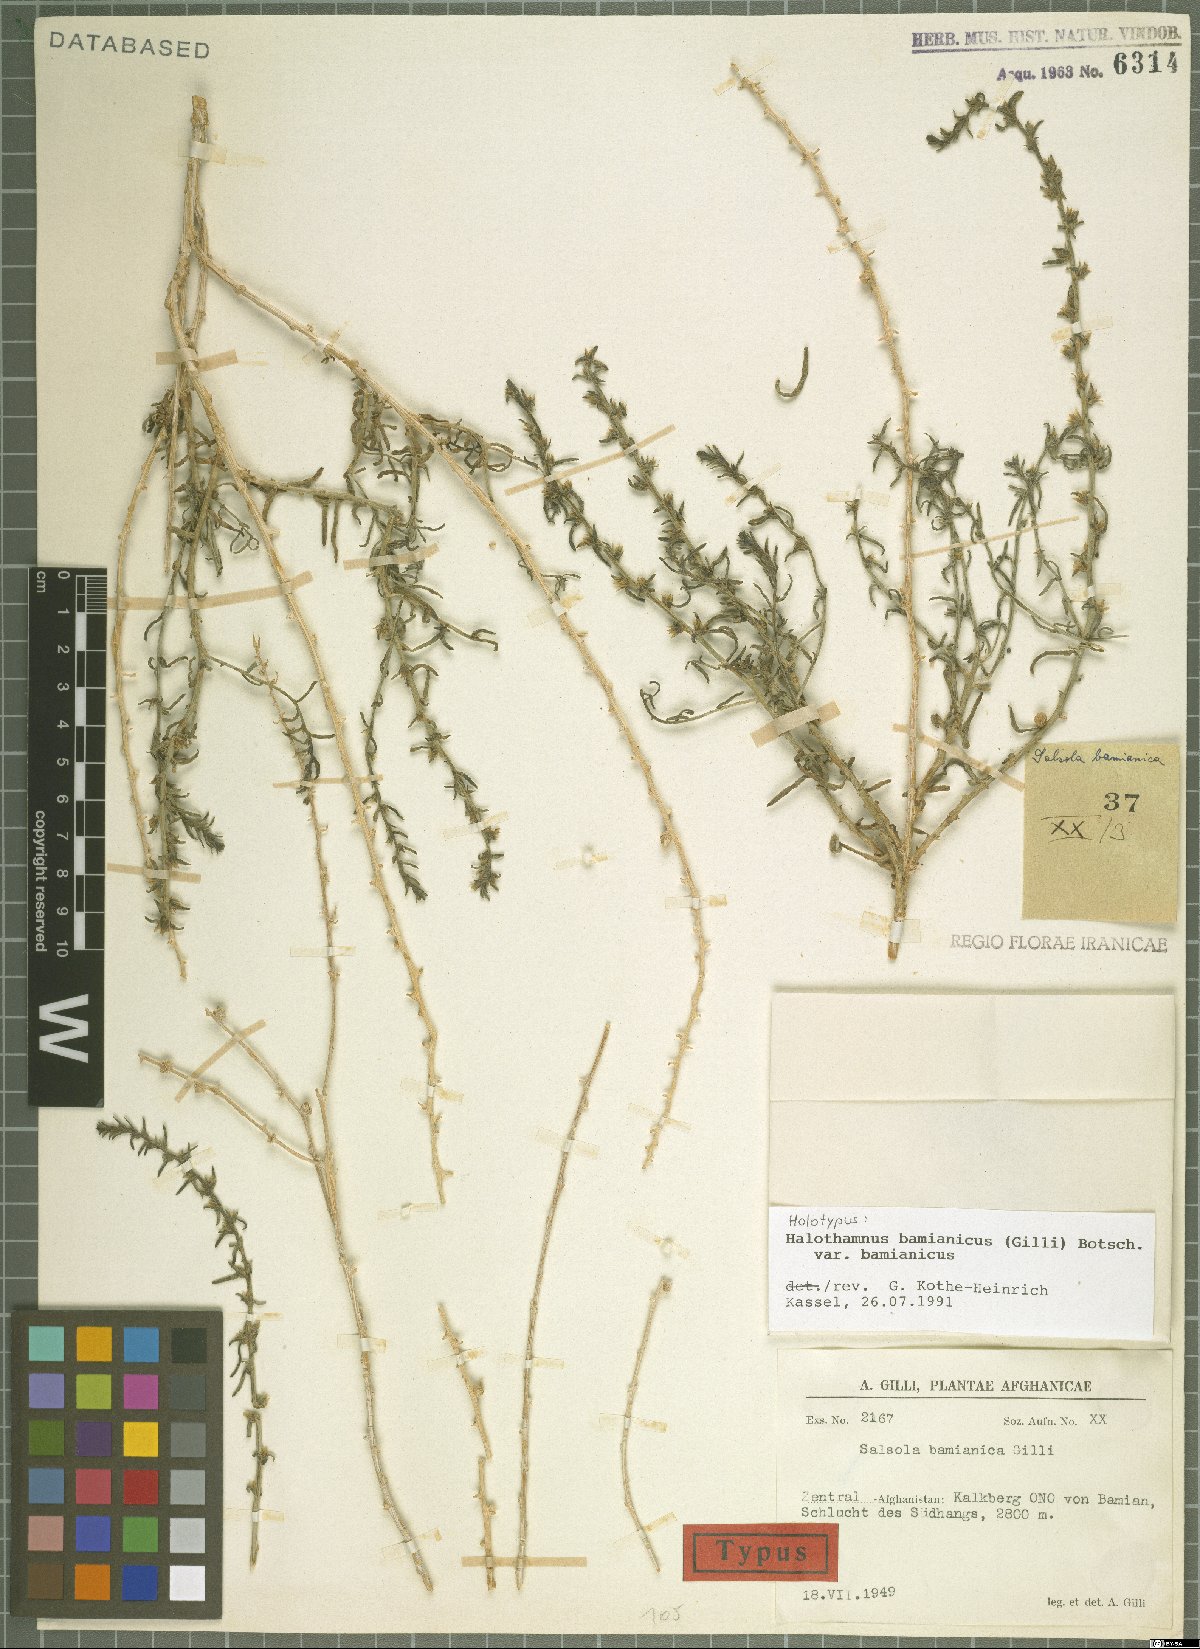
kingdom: Plantae
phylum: Tracheophyta
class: Magnoliopsida
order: Caryophyllales
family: Amaranthaceae
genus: Halothamnus
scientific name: Halothamnus bamianicus
